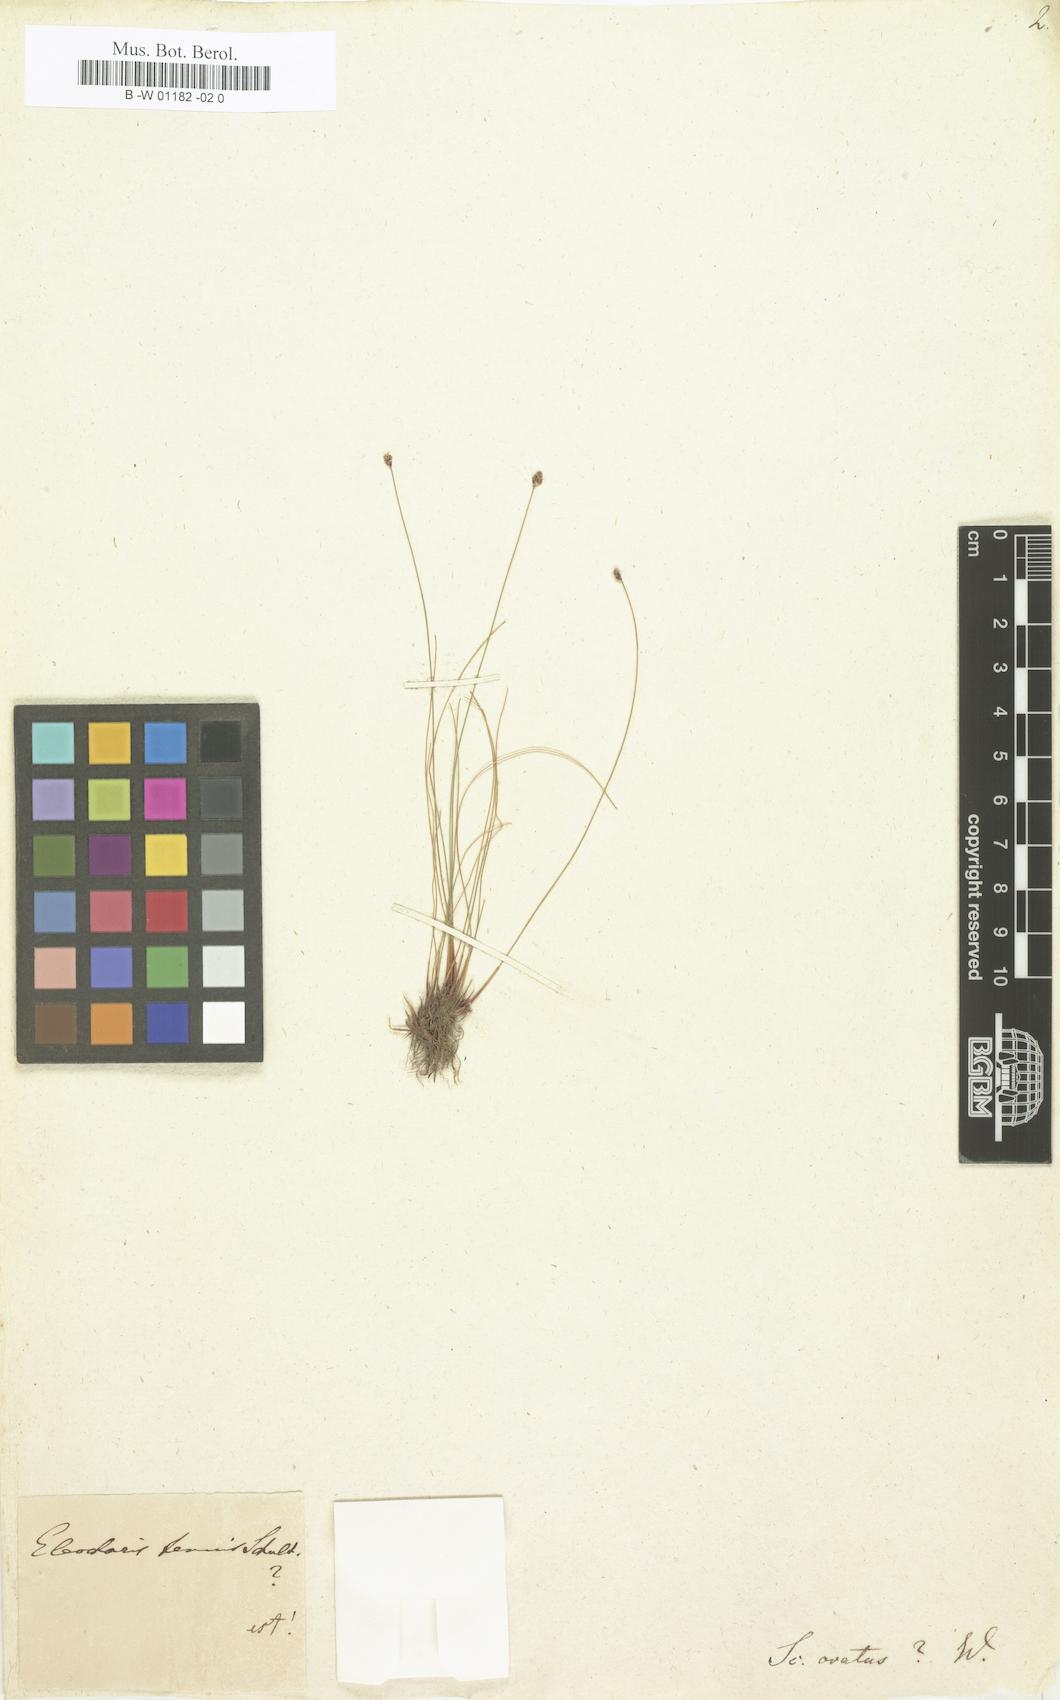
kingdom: Plantae
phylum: Tracheophyta
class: Liliopsida
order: Poales
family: Cyperaceae
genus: Eleocharis
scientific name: Eleocharis
